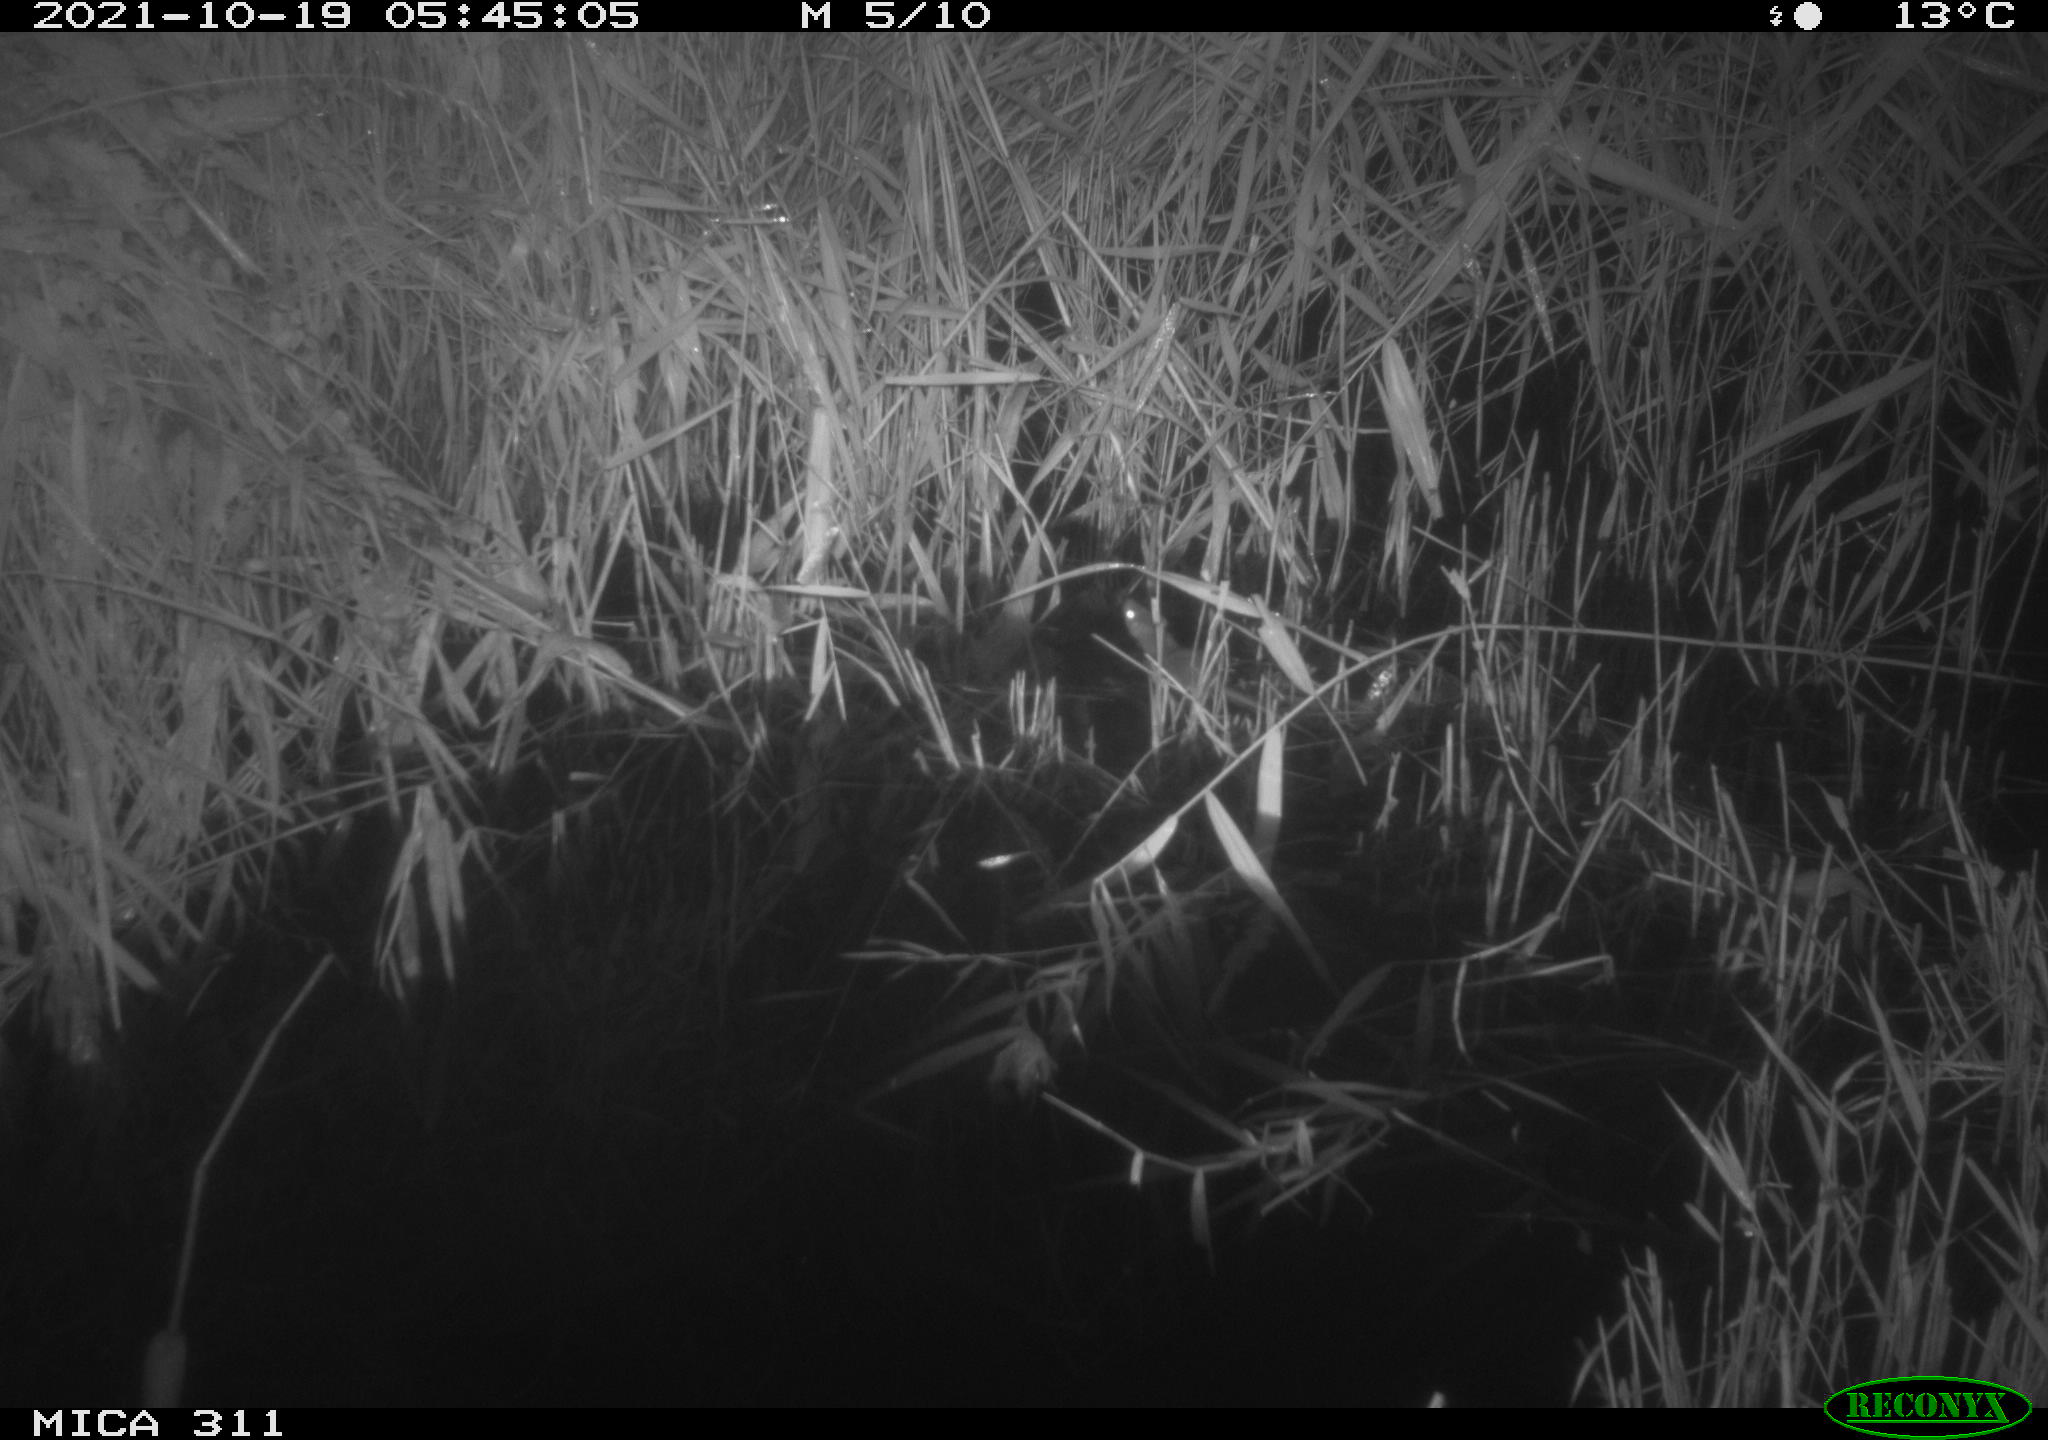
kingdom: Animalia
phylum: Chordata
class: Mammalia
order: Rodentia
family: Muridae
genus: Rattus
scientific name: Rattus norvegicus
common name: Brown rat
